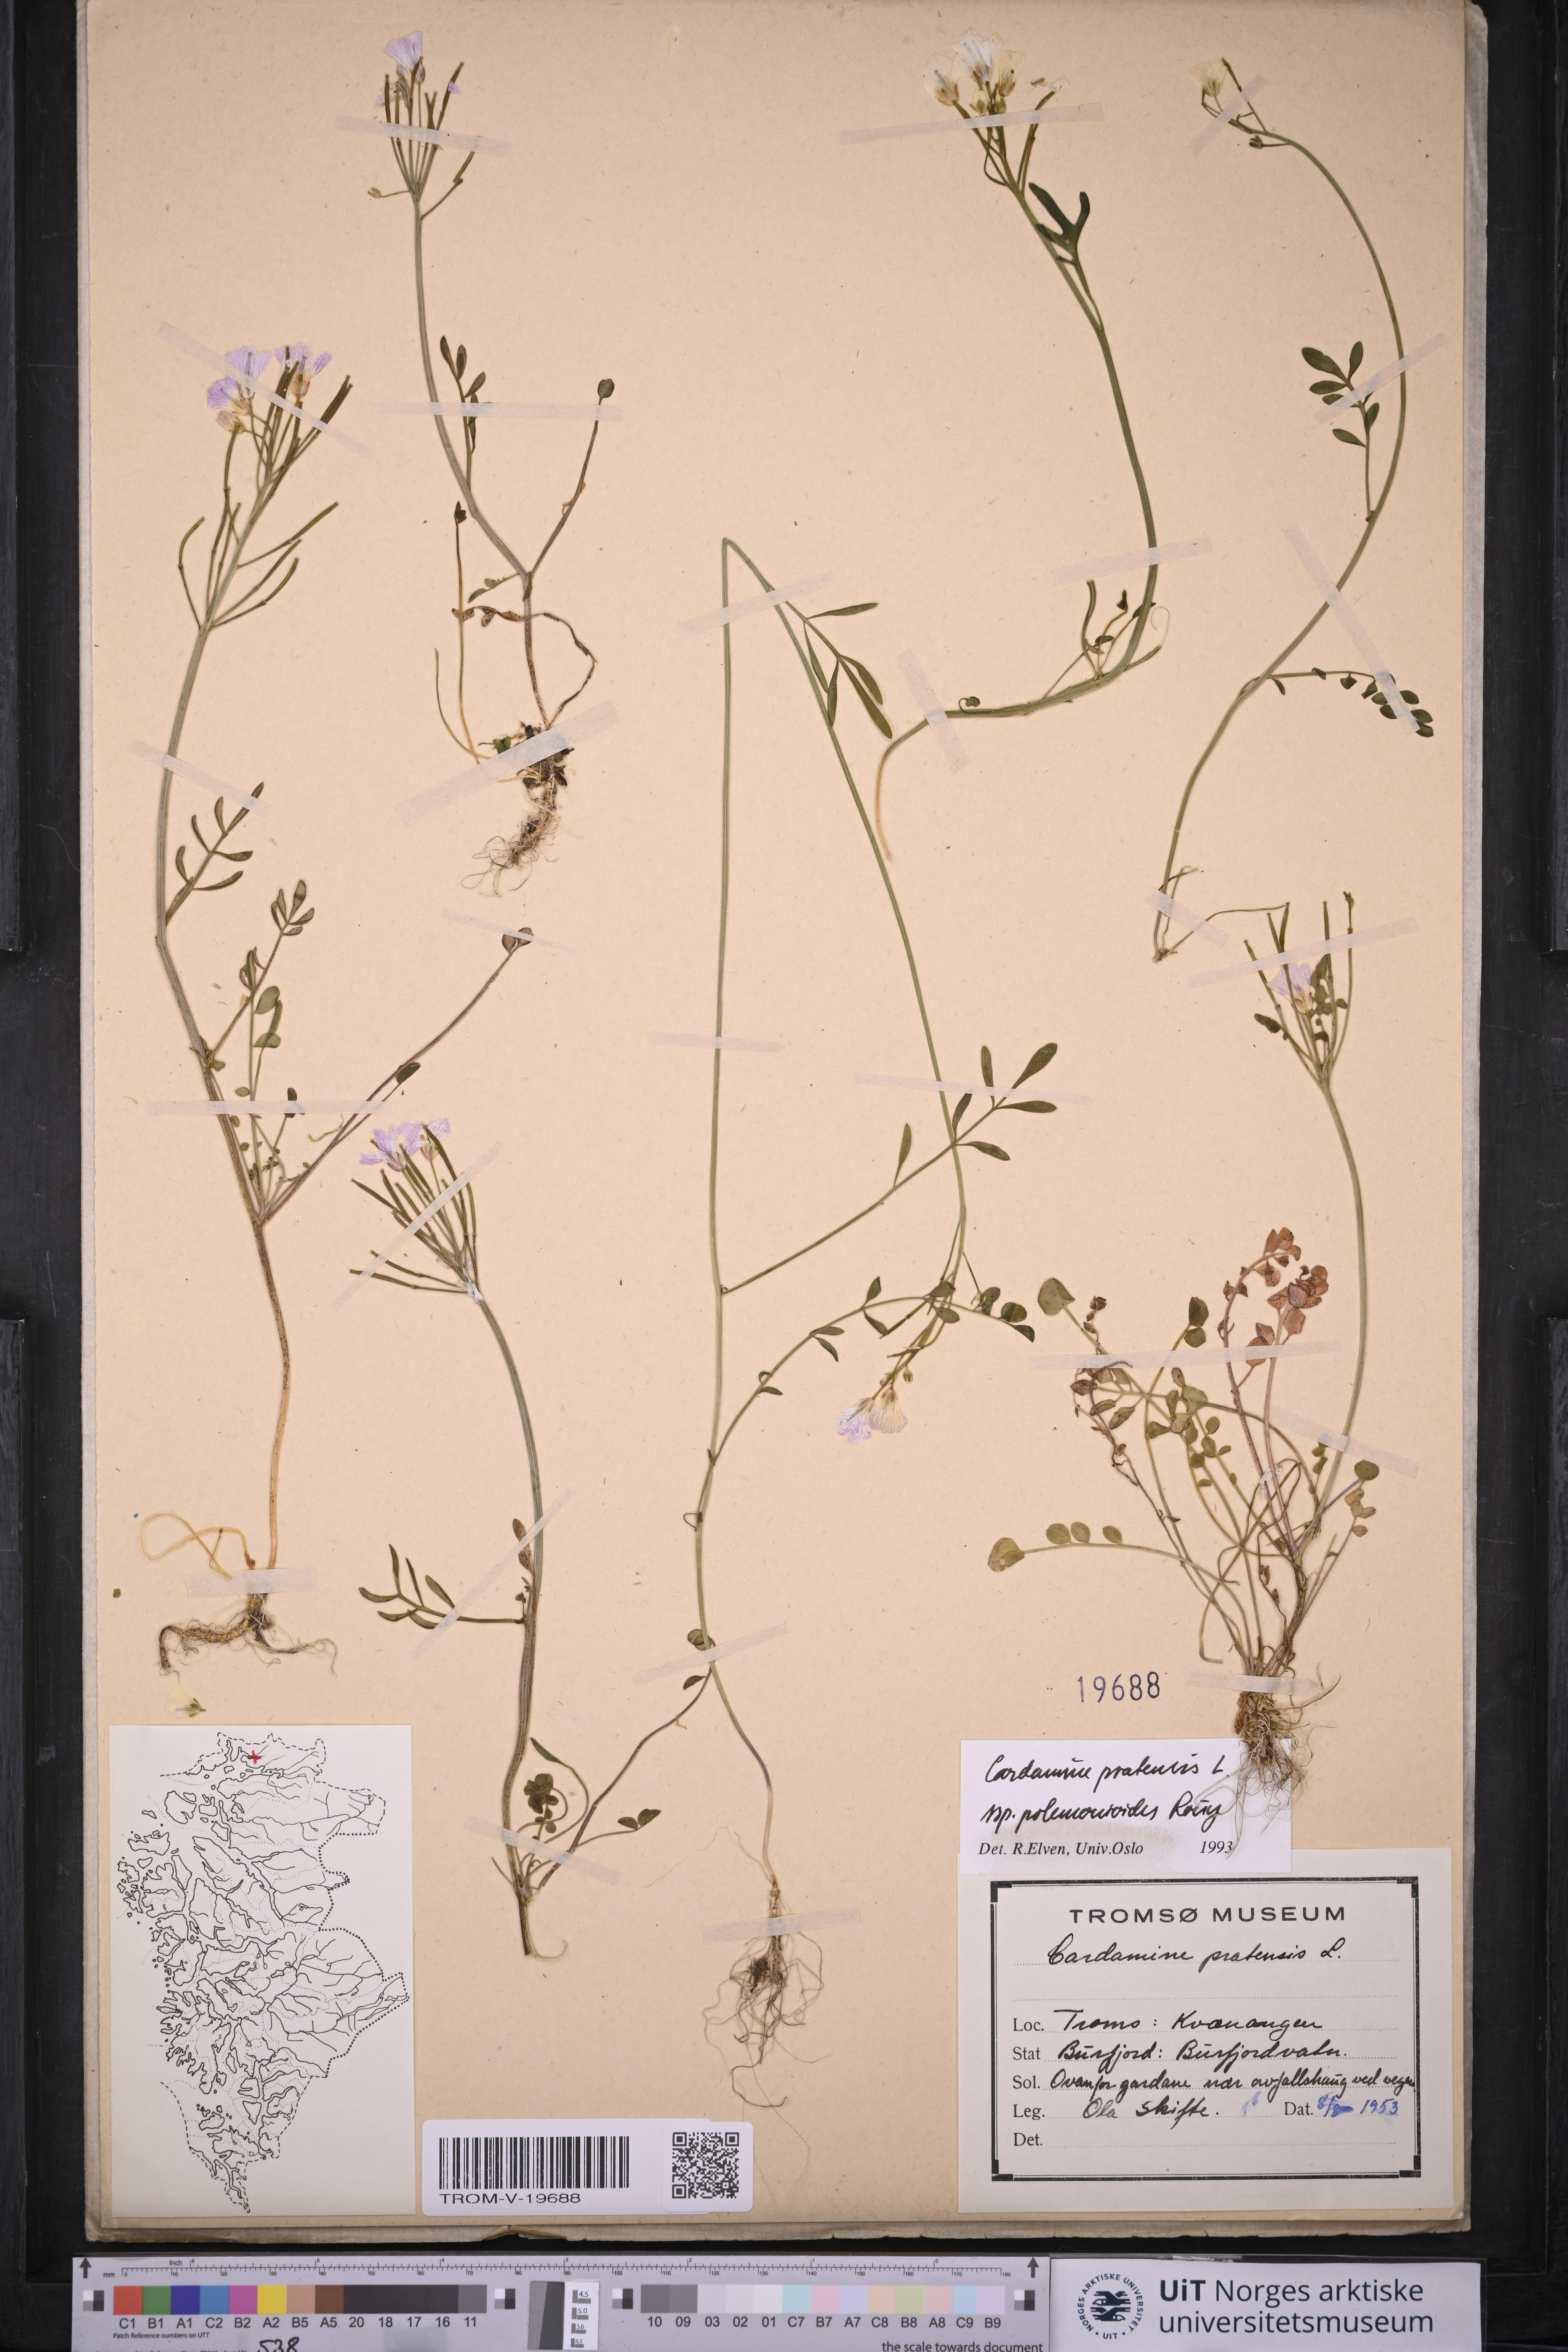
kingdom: Plantae
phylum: Tracheophyta
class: Magnoliopsida
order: Brassicales
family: Brassicaceae
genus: Cardamine
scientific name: Cardamine nymanii
